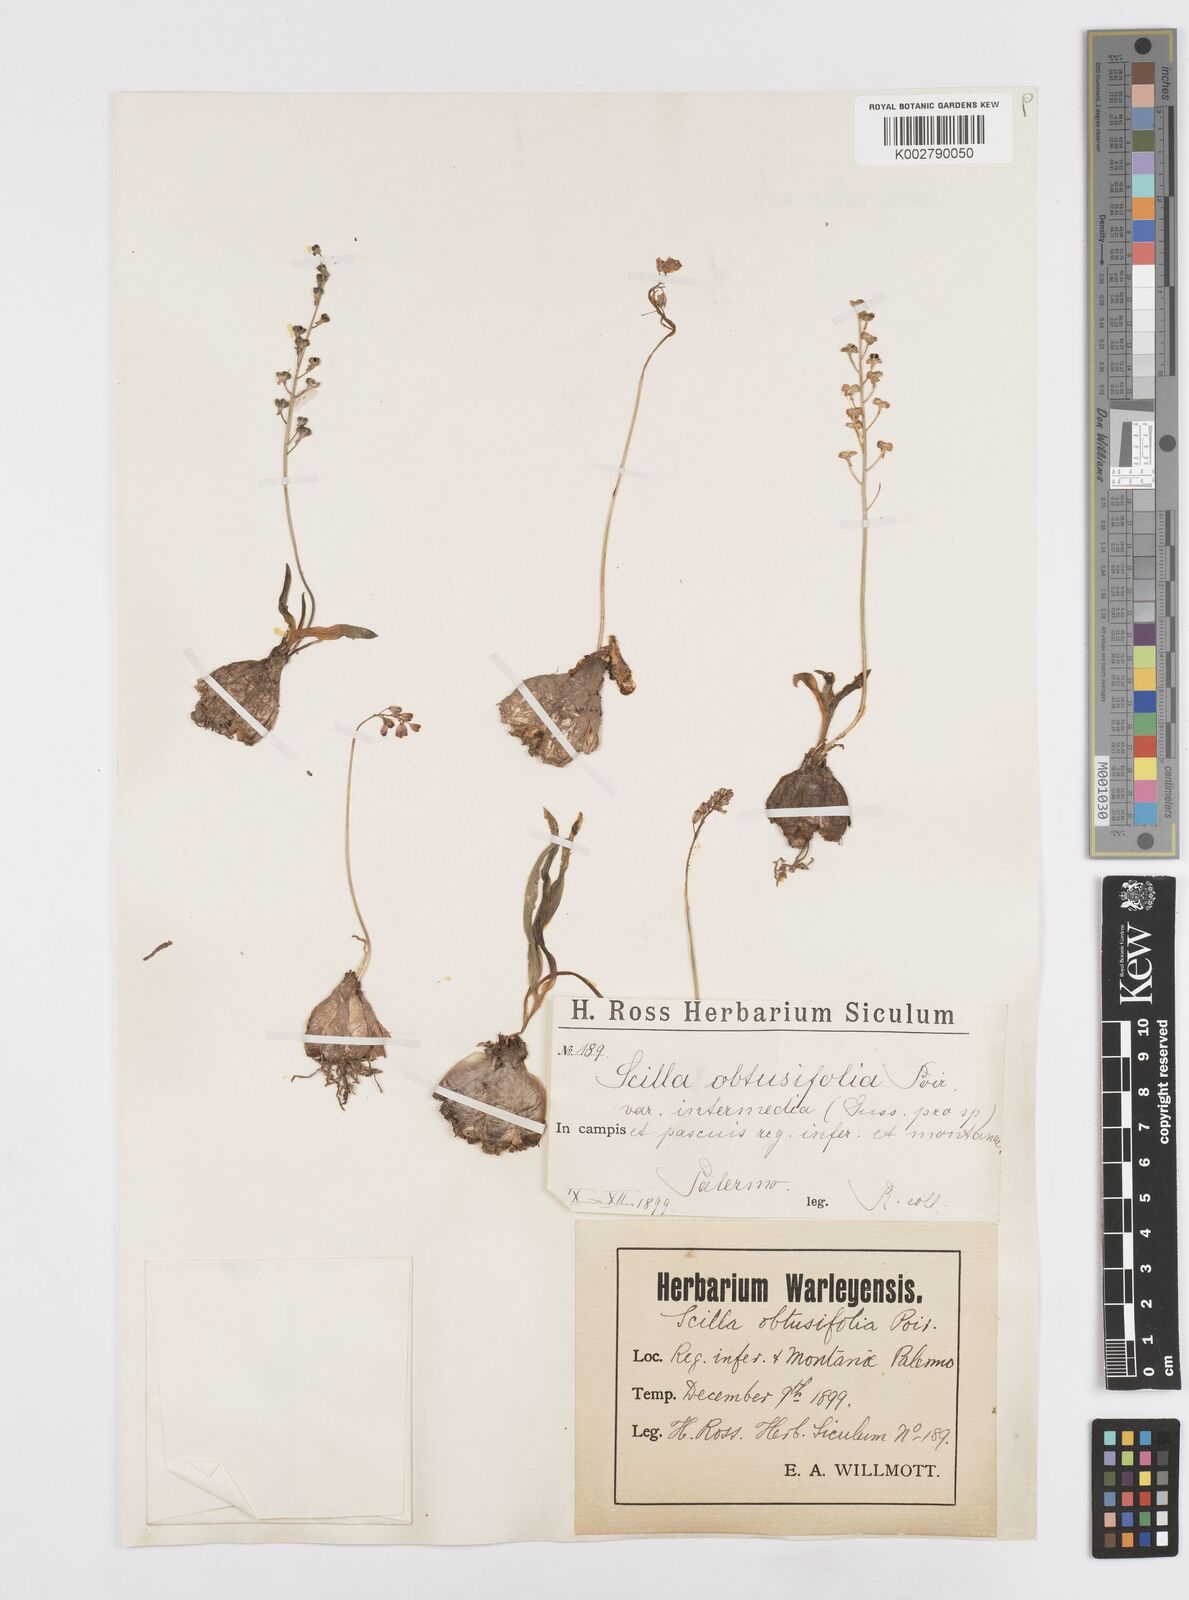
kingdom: Plantae
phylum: Tracheophyta
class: Liliopsida
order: Asparagales
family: Asparagaceae
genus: Prospero
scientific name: Prospero obtusifolium
